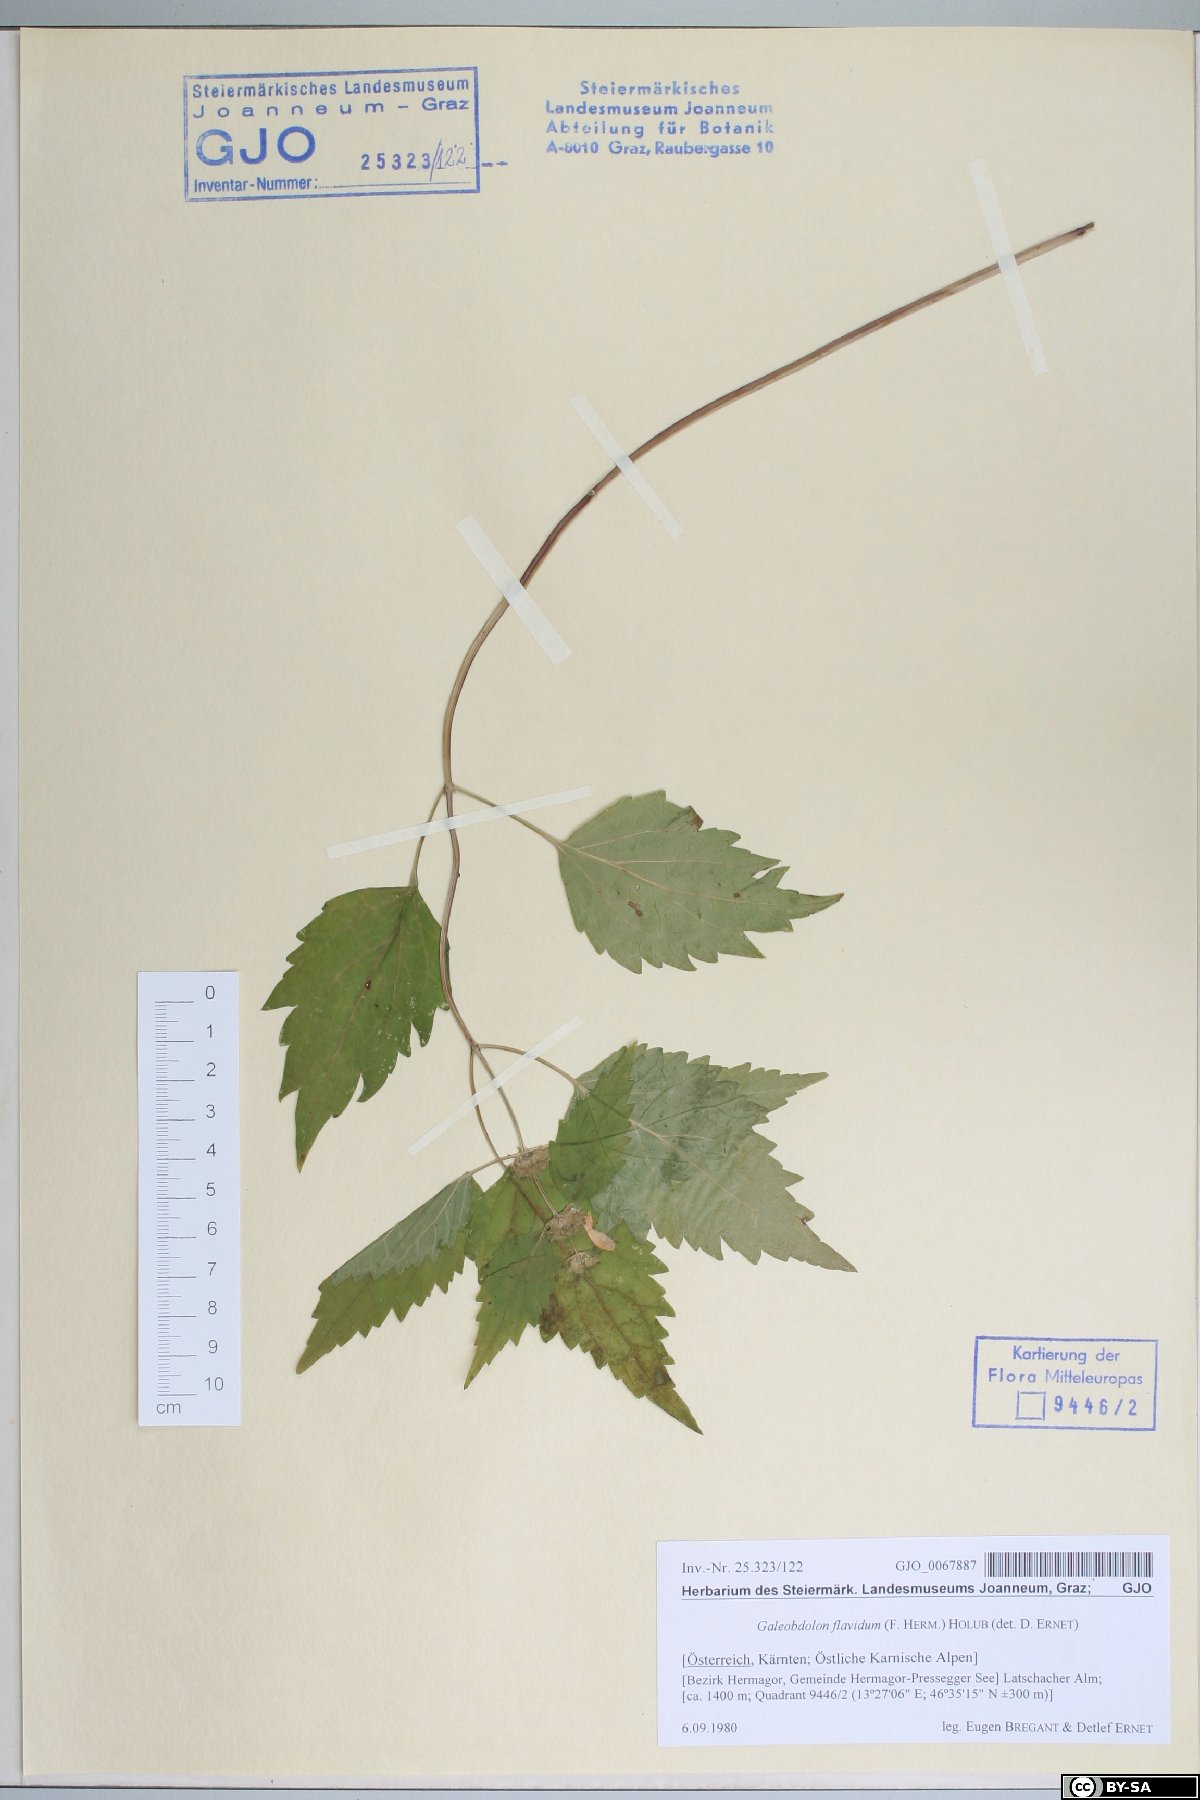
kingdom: Plantae
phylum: Tracheophyta
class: Magnoliopsida
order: Lamiales
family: Lamiaceae
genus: Lamium
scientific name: Lamium galeobdolon
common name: Yellow archangel
